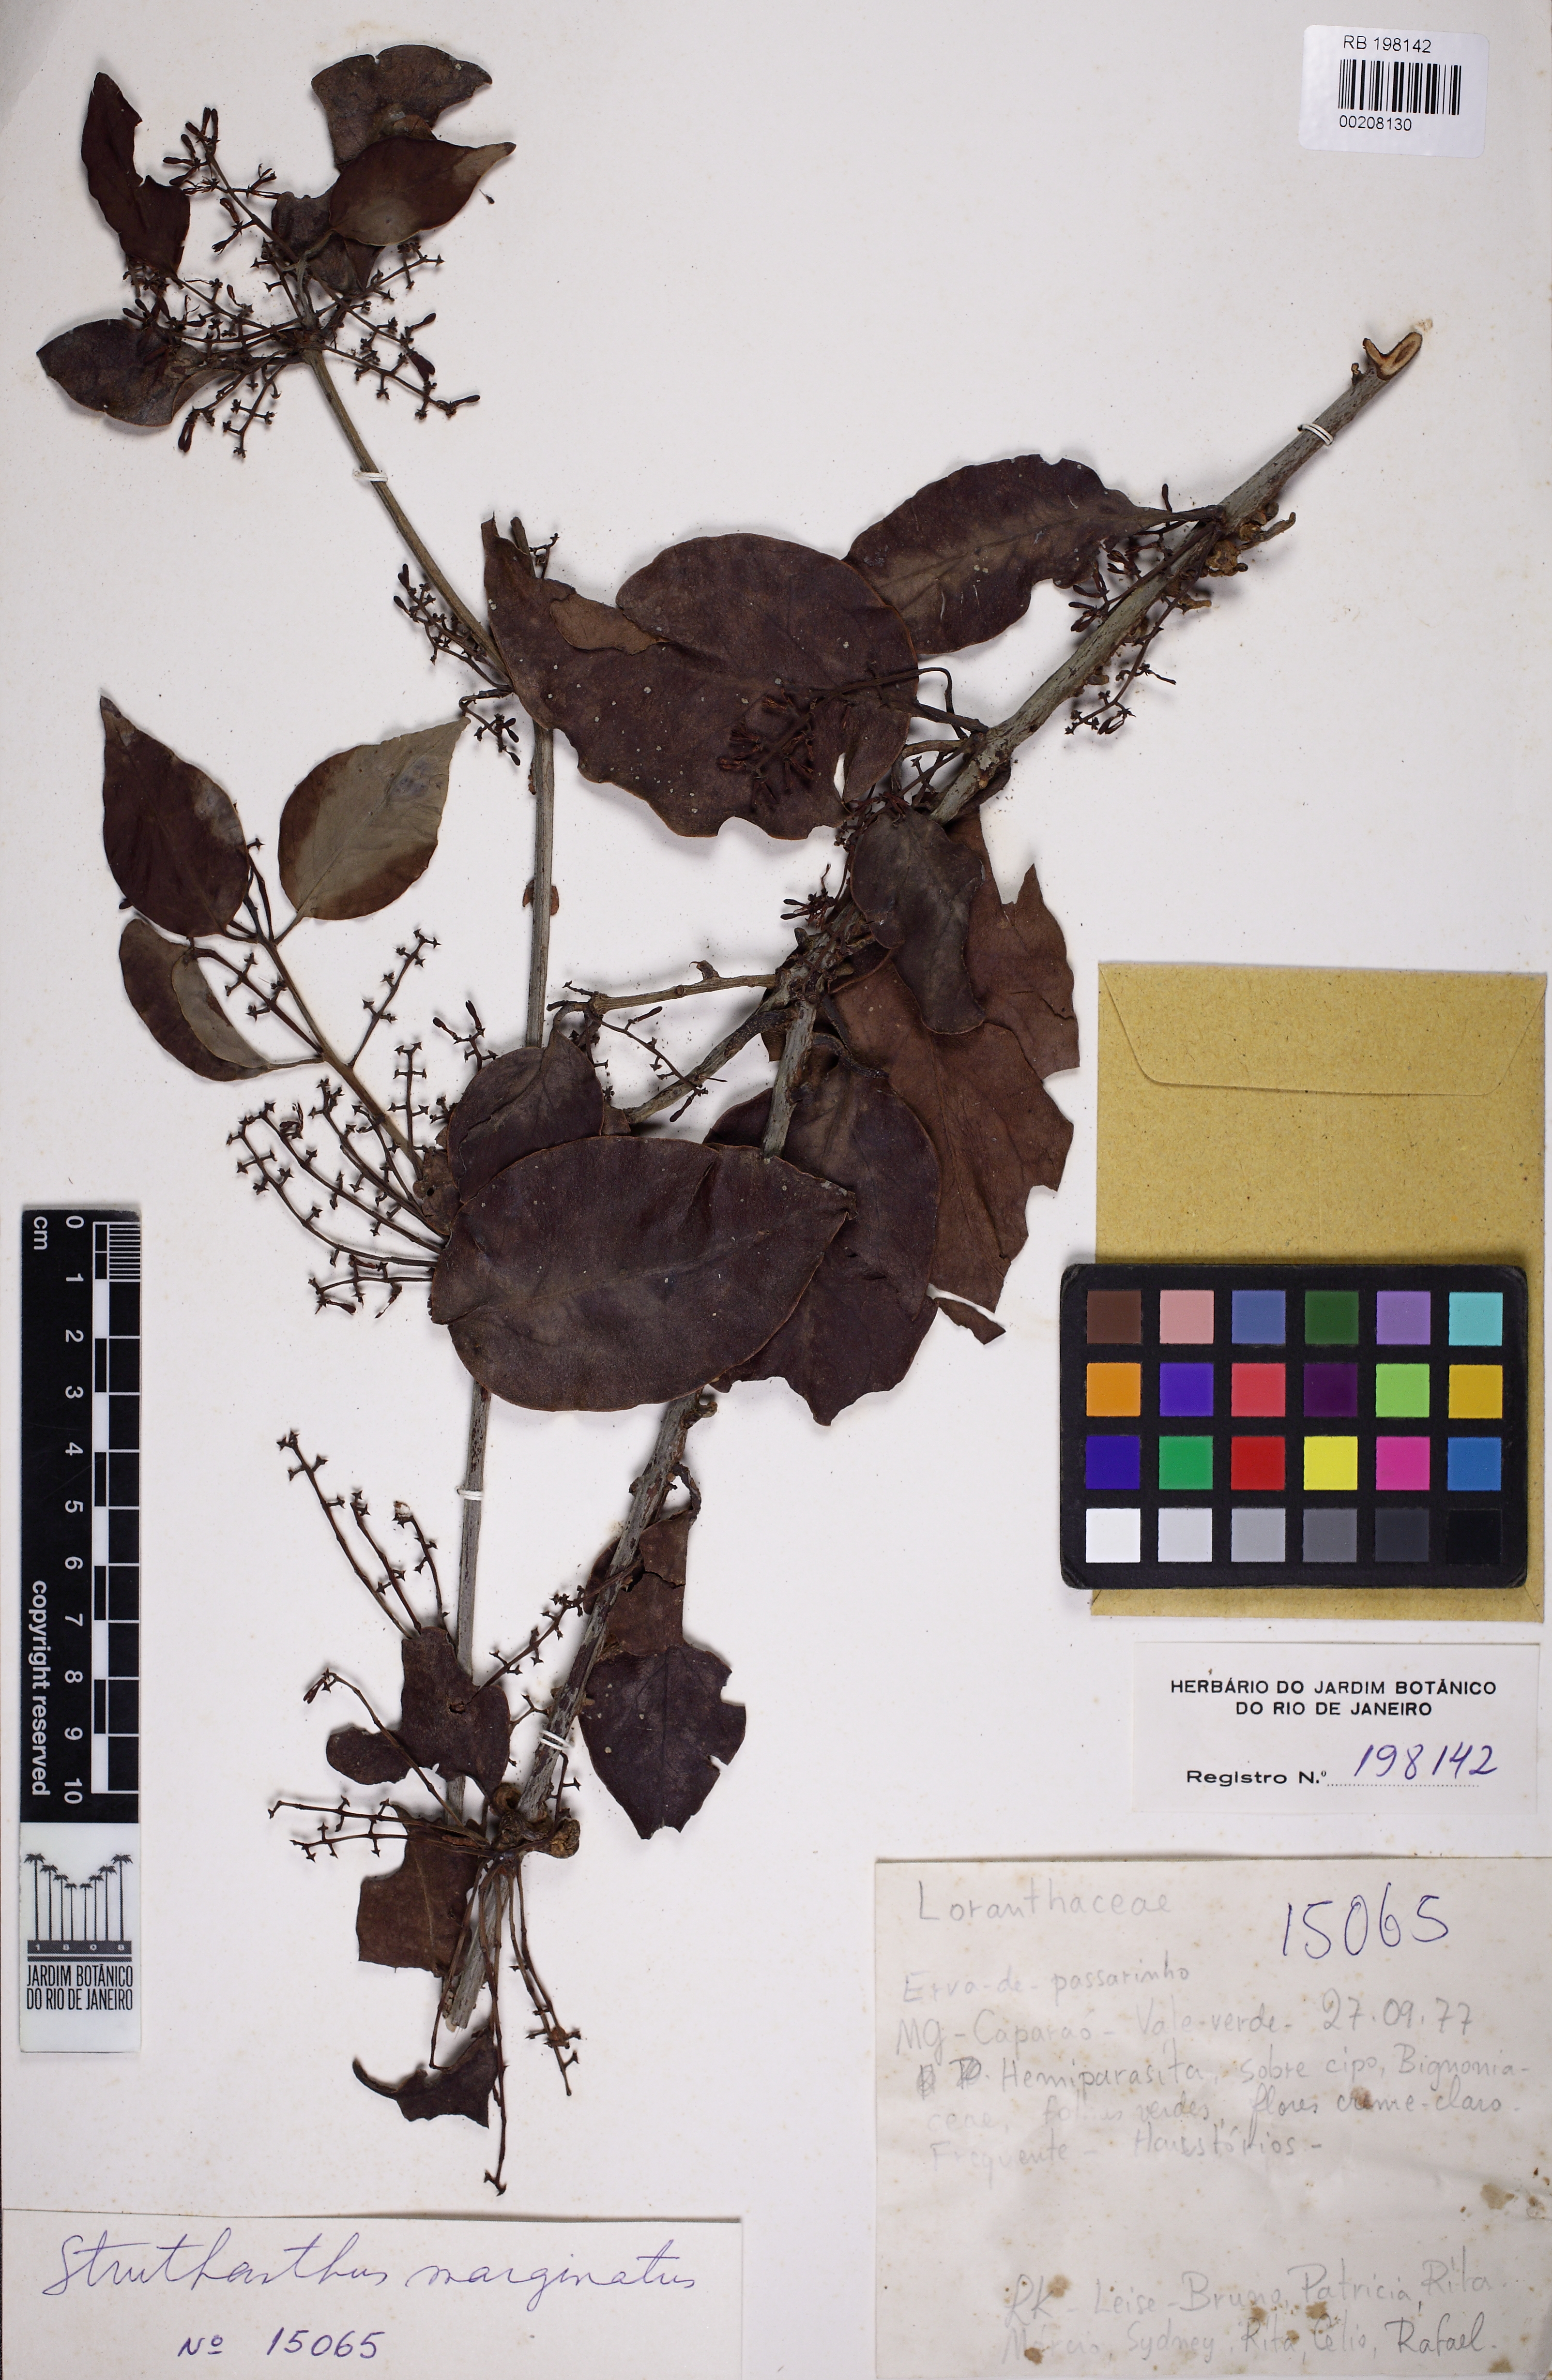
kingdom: Plantae
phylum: Tracheophyta
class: Magnoliopsida
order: Santalales
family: Loranthaceae
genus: Struthanthus
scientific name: Struthanthus marginatus
